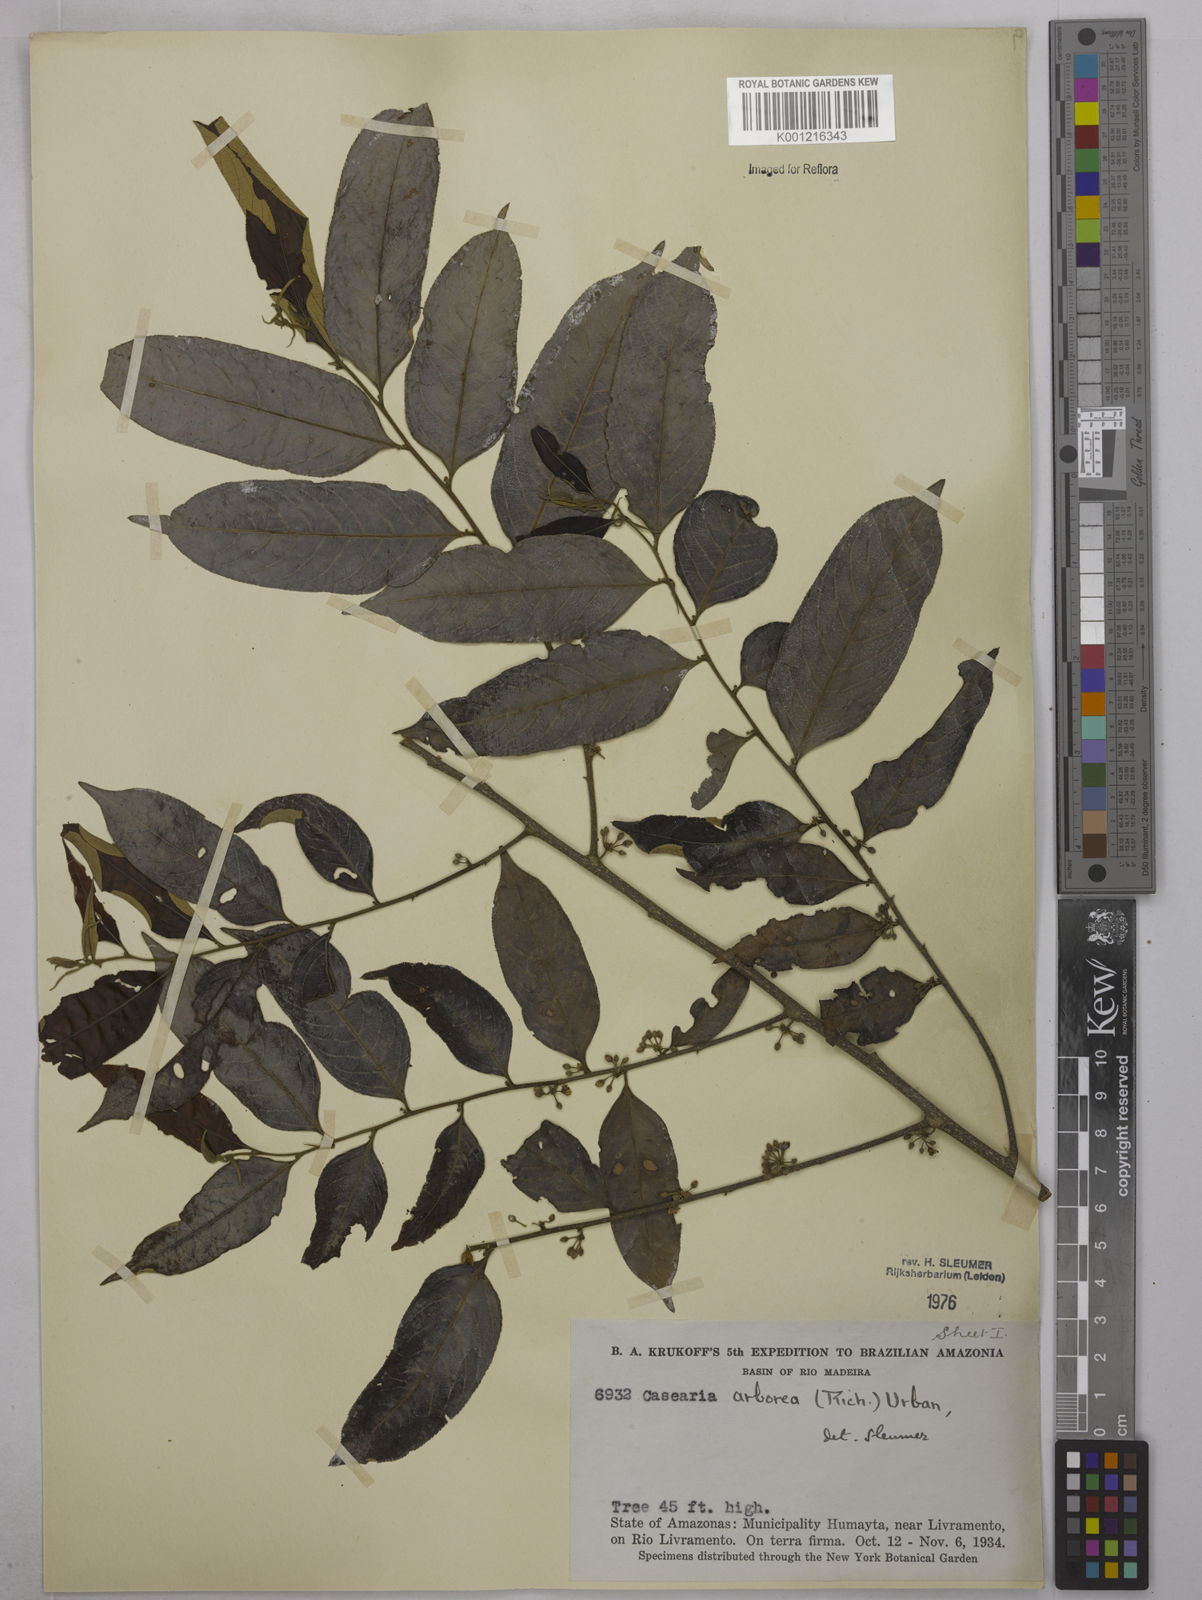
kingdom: Plantae
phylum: Tracheophyta
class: Magnoliopsida
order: Malpighiales
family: Salicaceae
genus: Casearia
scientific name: Casearia arborea
